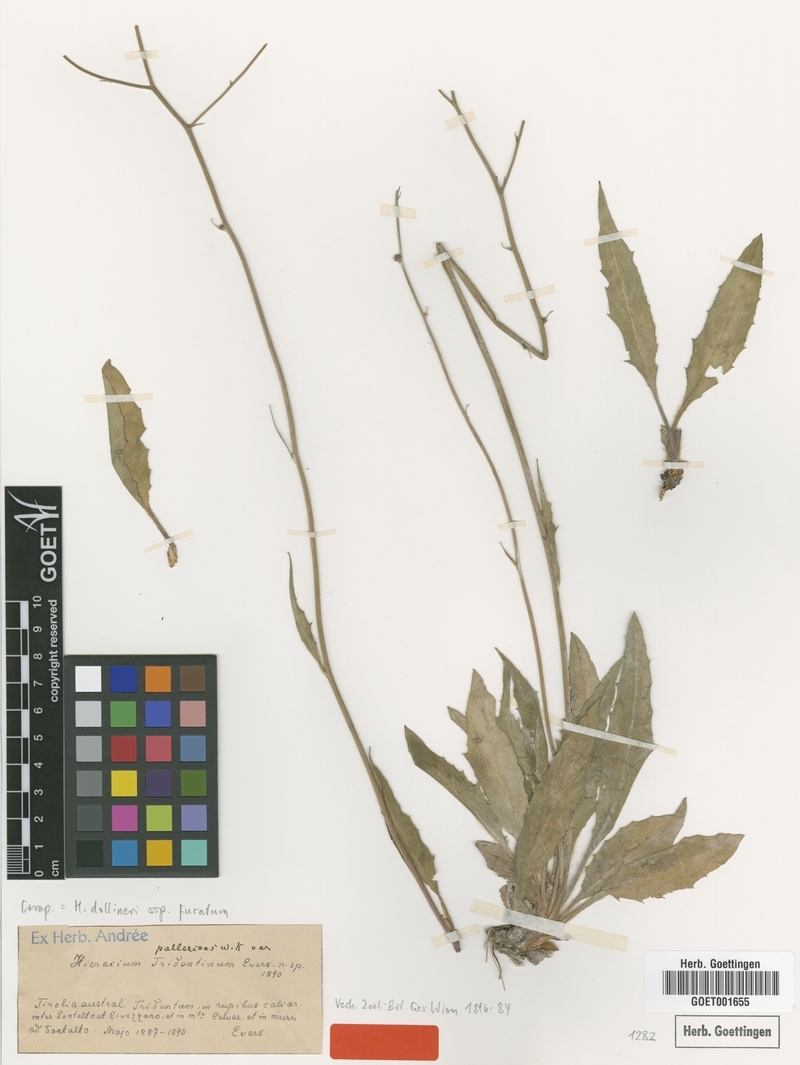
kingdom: Plantae
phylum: Tracheophyta
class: Magnoliopsida
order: Asterales
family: Asteraceae
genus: Hieracium
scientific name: Hieracium dollineri
